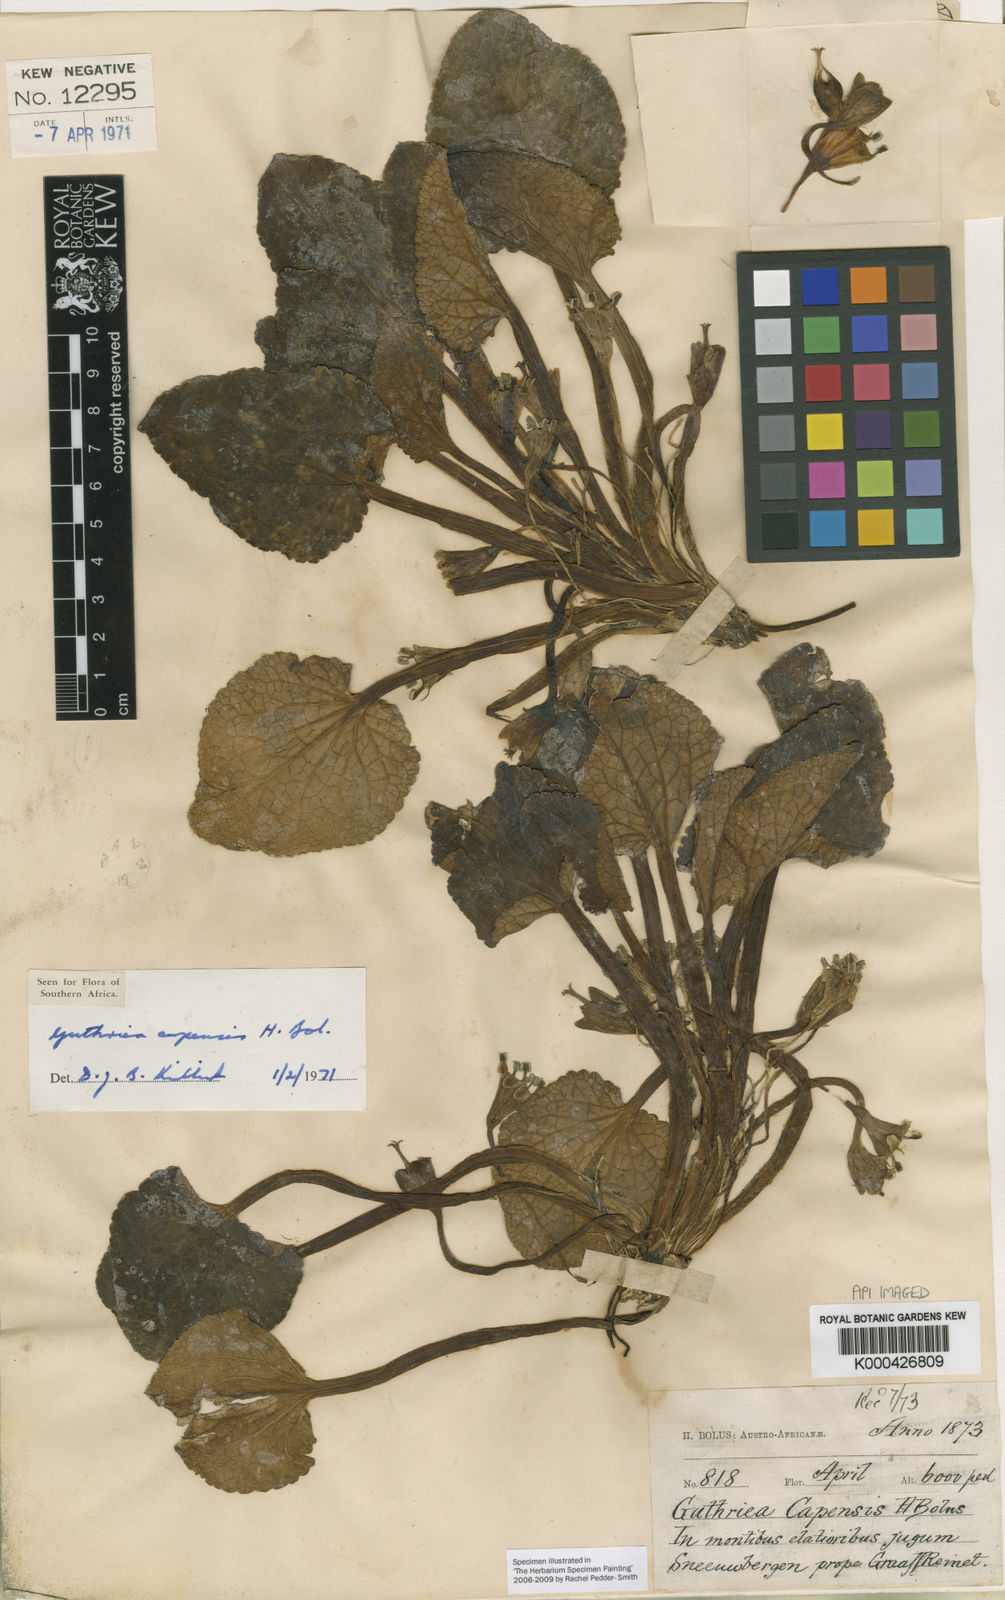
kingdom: Plantae
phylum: Tracheophyta
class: Magnoliopsida
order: Malpighiales
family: Achariaceae
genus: Guthriea
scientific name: Guthriea capensis
